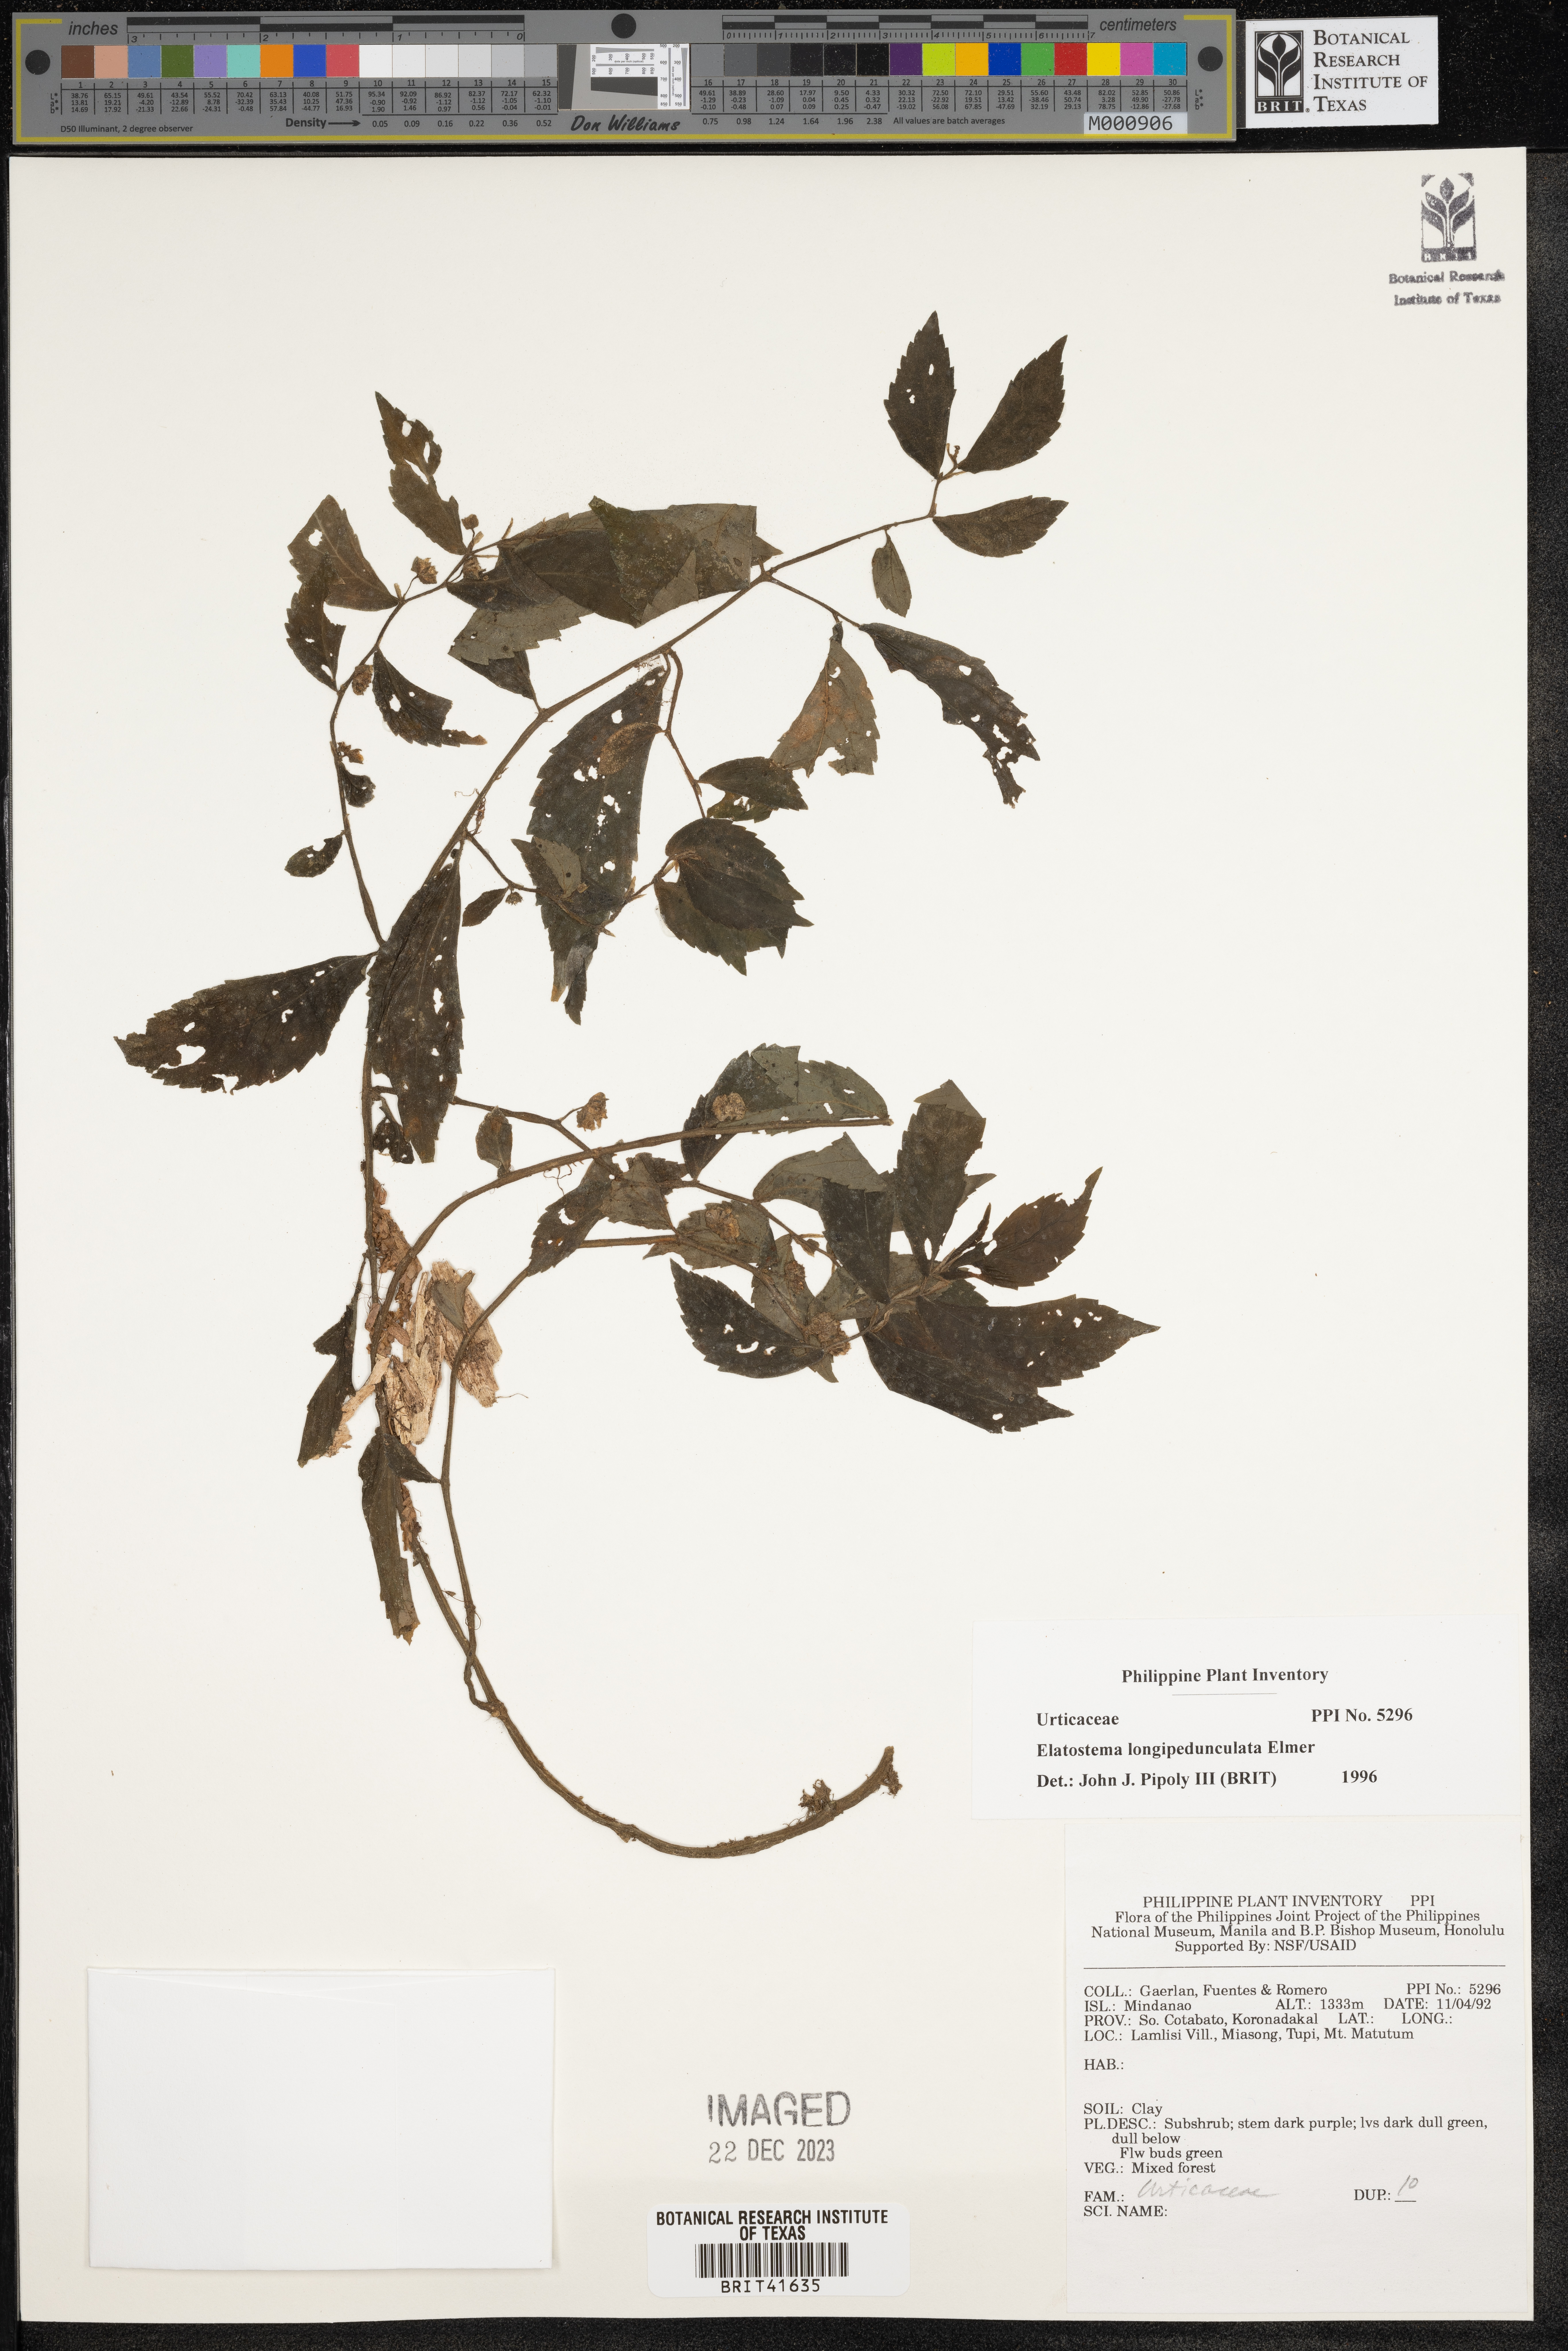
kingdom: Plantae
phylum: Tracheophyta
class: Magnoliopsida
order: Rosales
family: Urticaceae
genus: Elatostema
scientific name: Elatostema longipedunculatum
